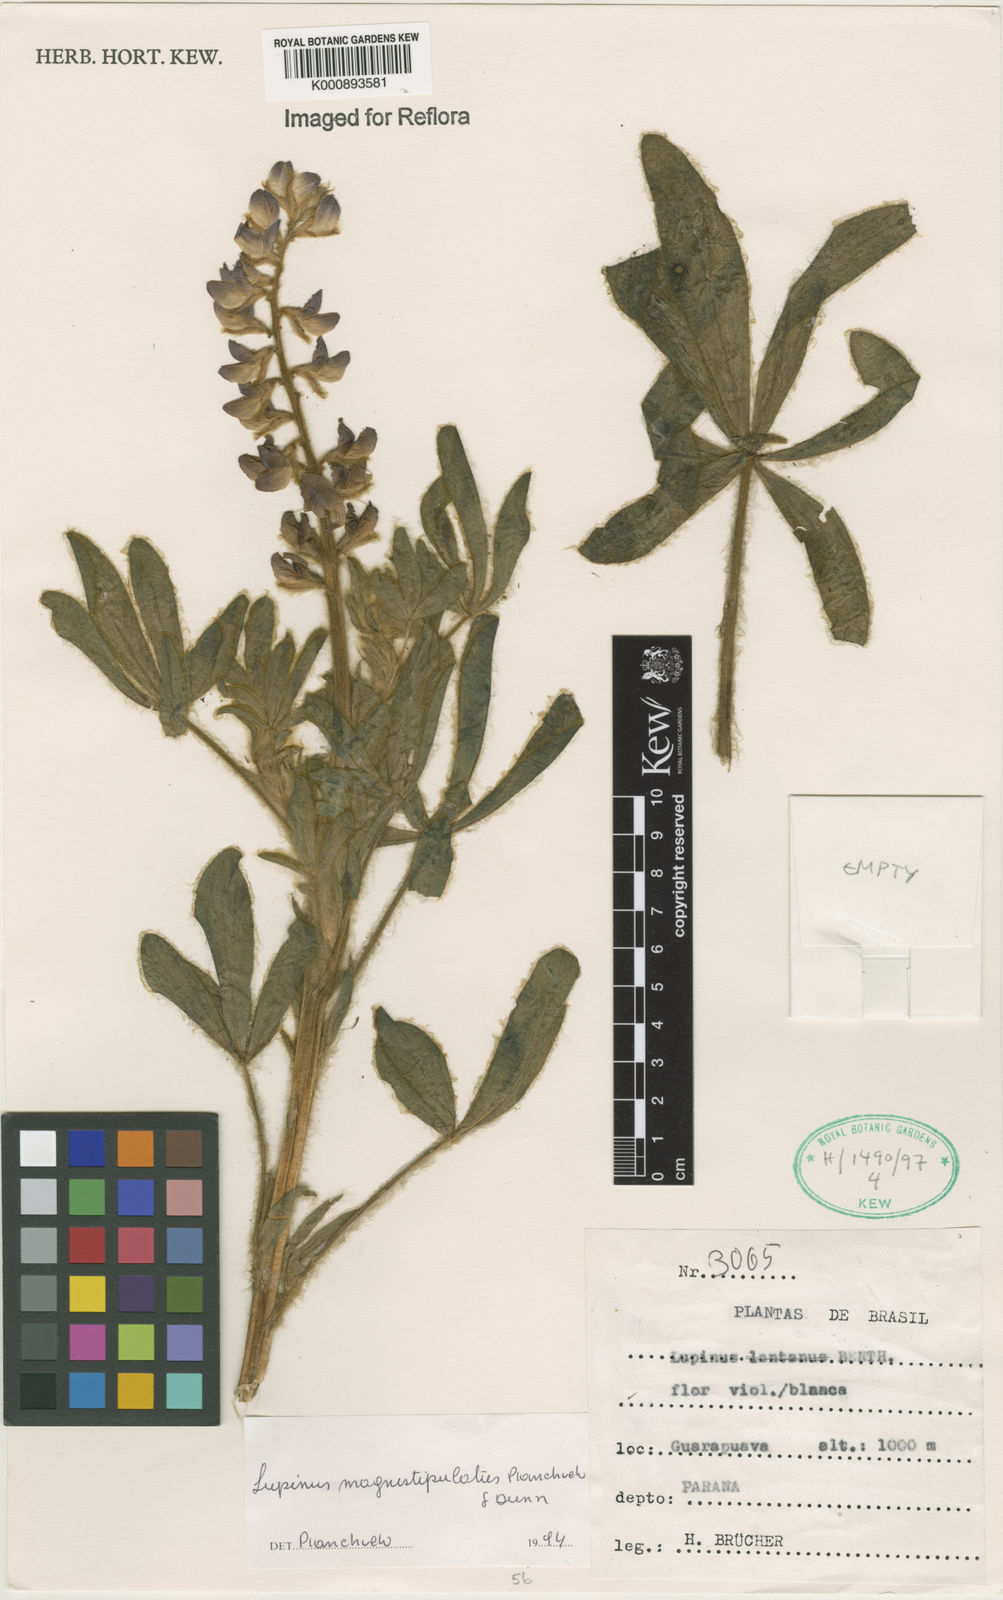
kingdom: Plantae
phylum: Tracheophyta
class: Magnoliopsida
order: Fabales
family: Fabaceae
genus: Lupinus
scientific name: Lupinus magnistipulatus
